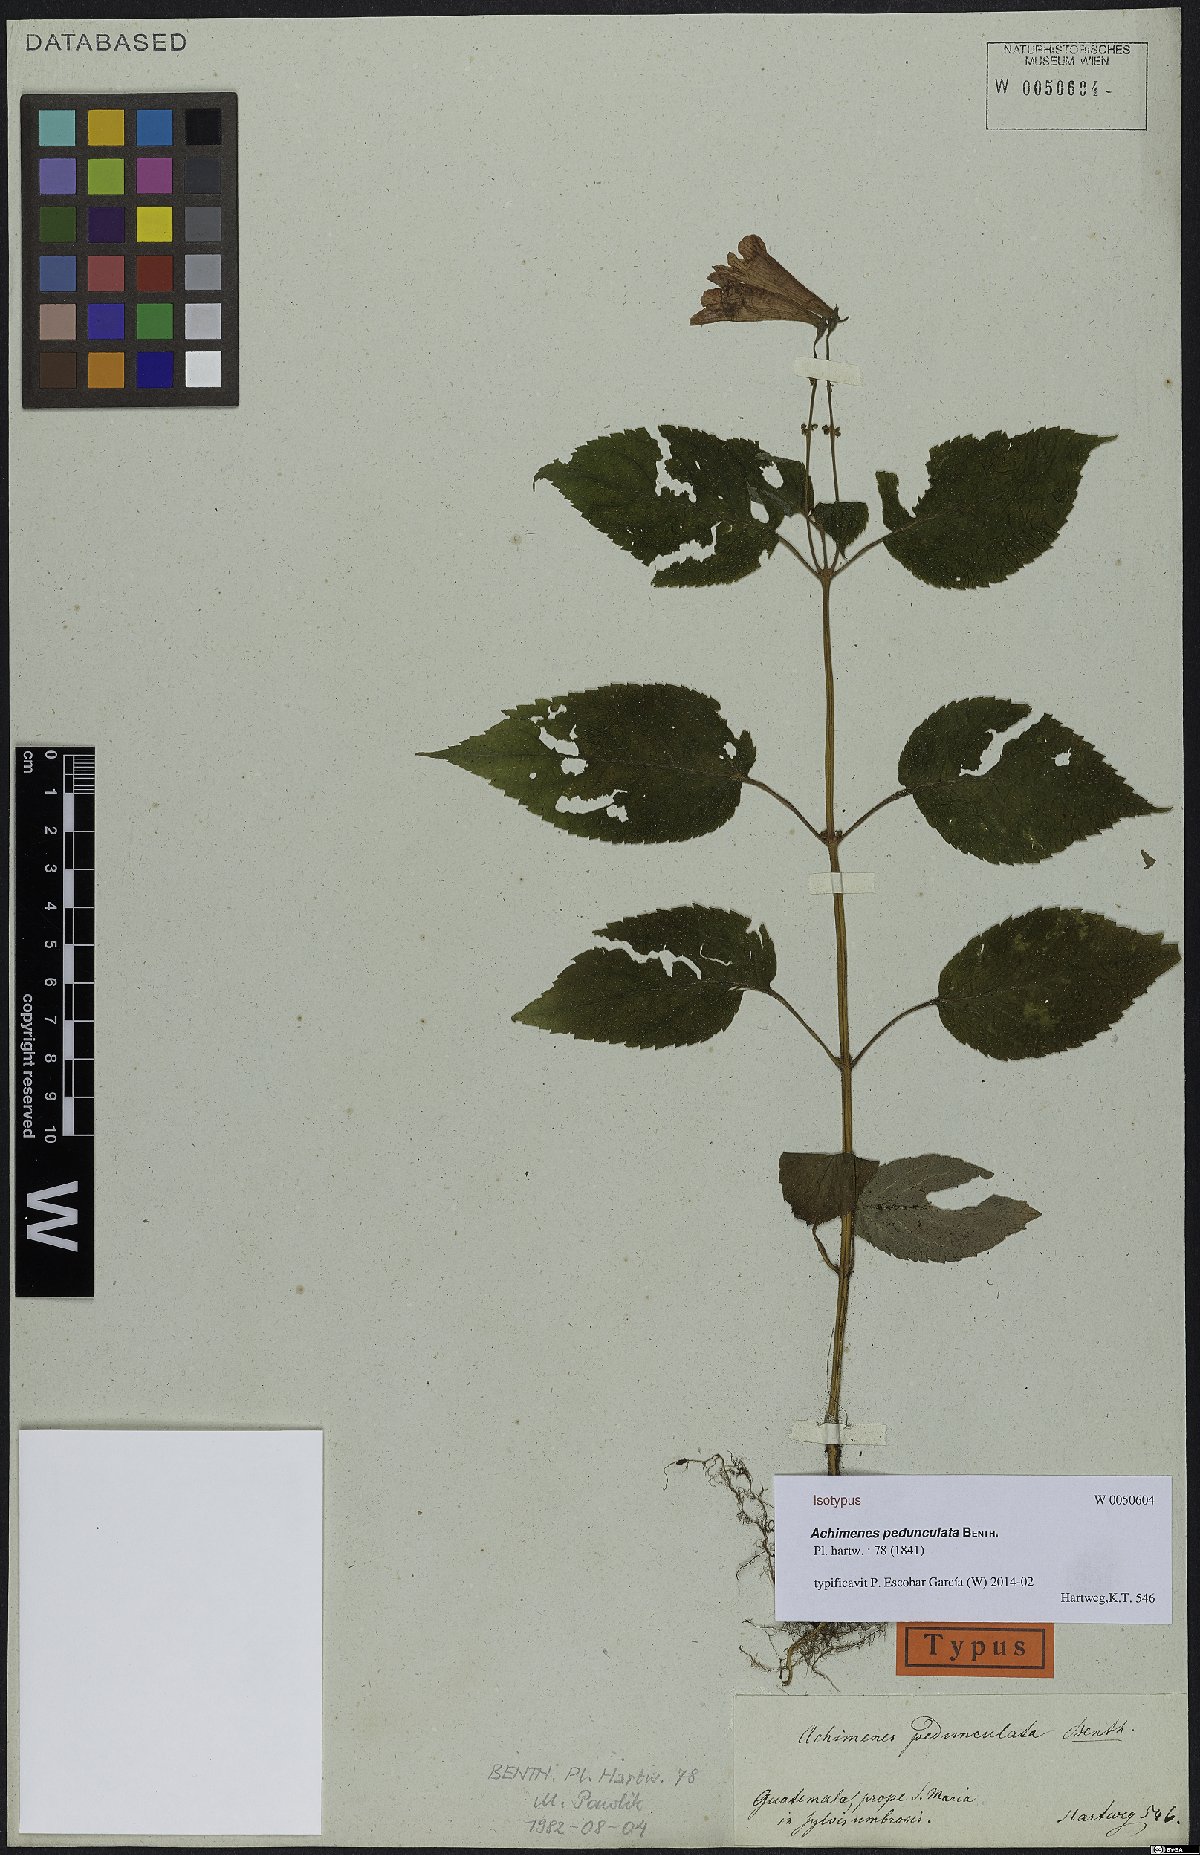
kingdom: Plantae
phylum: Tracheophyta
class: Magnoliopsida
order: Lamiales
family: Gesneriaceae
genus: Achimenes
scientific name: Achimenes pedunculata
